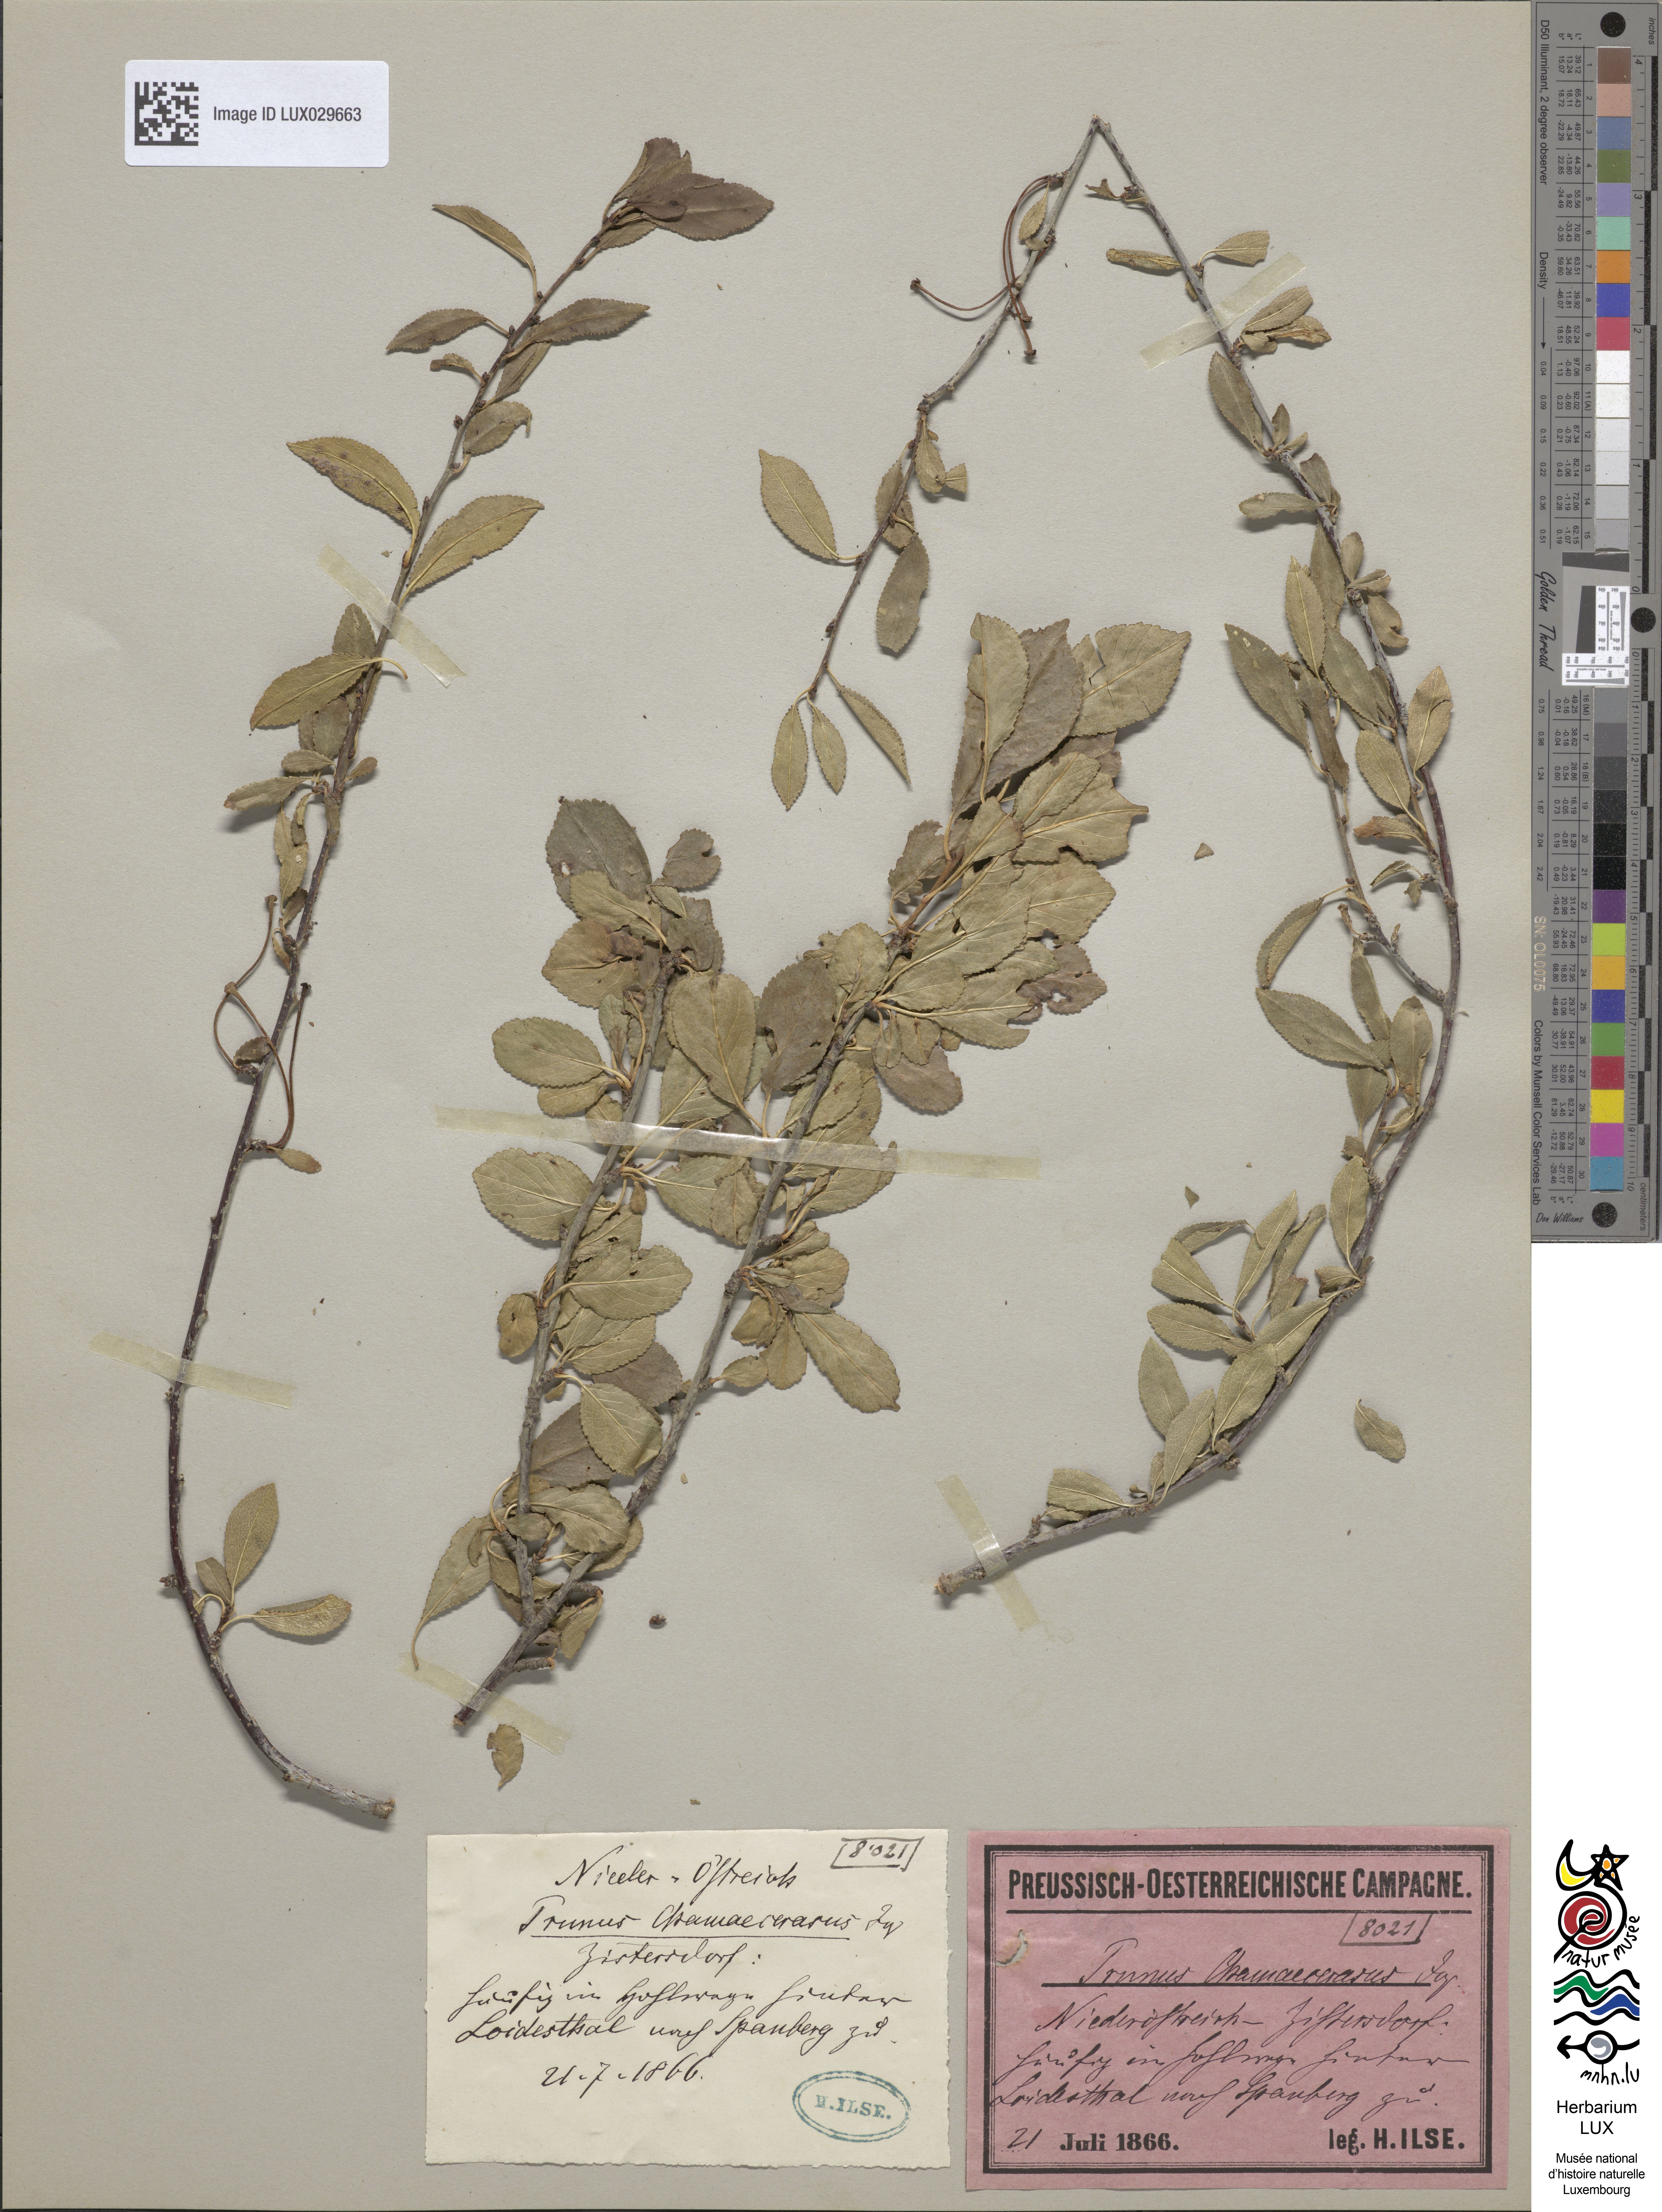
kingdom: Plantae
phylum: Tracheophyta
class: Magnoliopsida
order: Rosales
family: Rosaceae
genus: Prunus
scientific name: Prunus fruticosa
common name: European dwarf cherry
